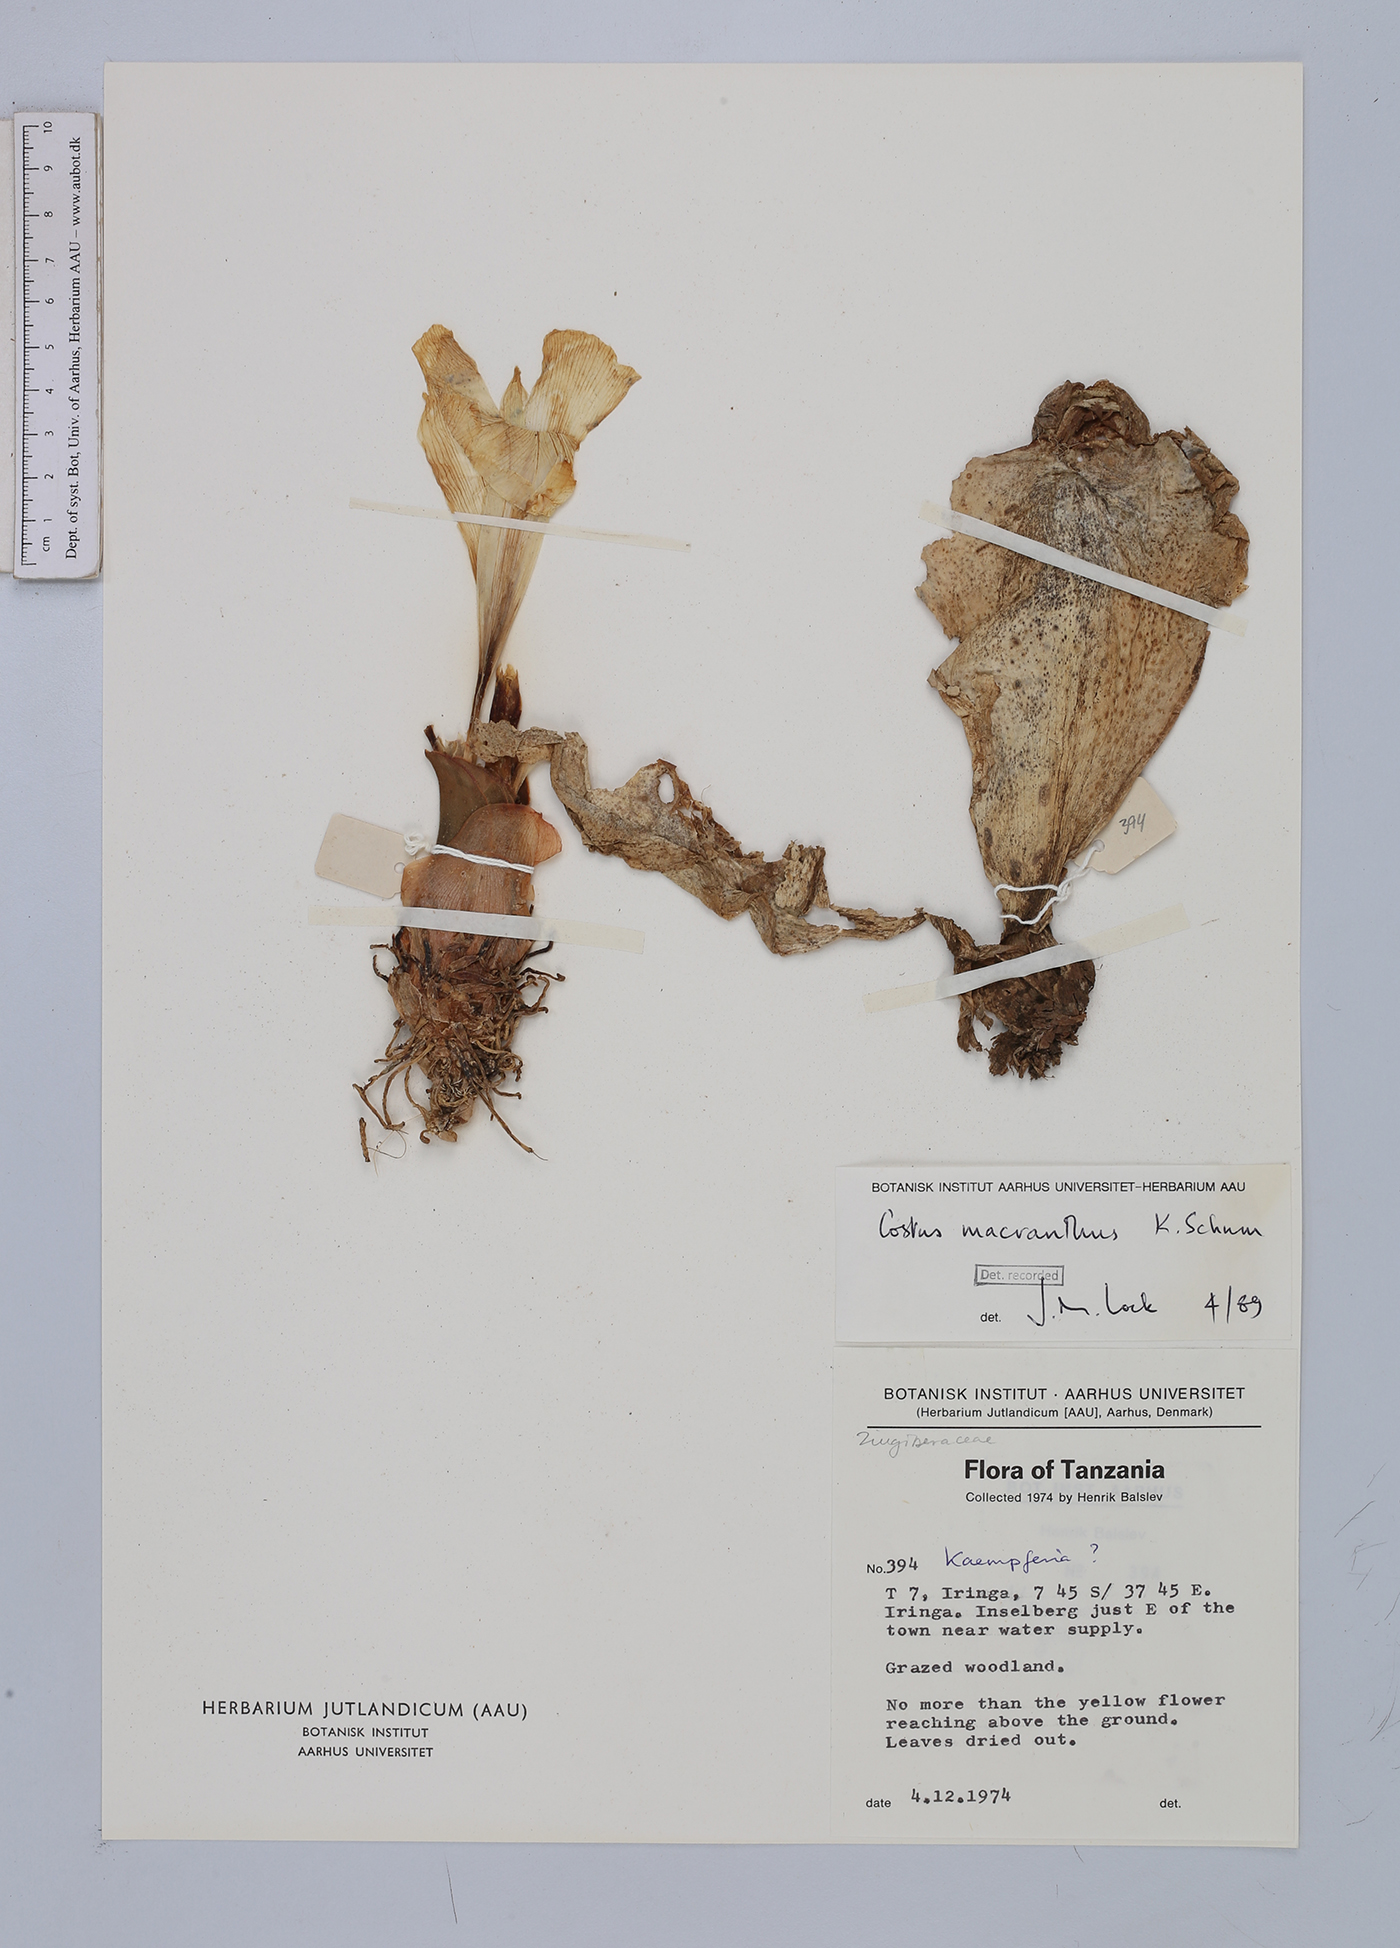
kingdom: Plantae
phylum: Tracheophyta
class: Liliopsida
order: Zingiberales
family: Costaceae
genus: Costus
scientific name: Costus macranthus
